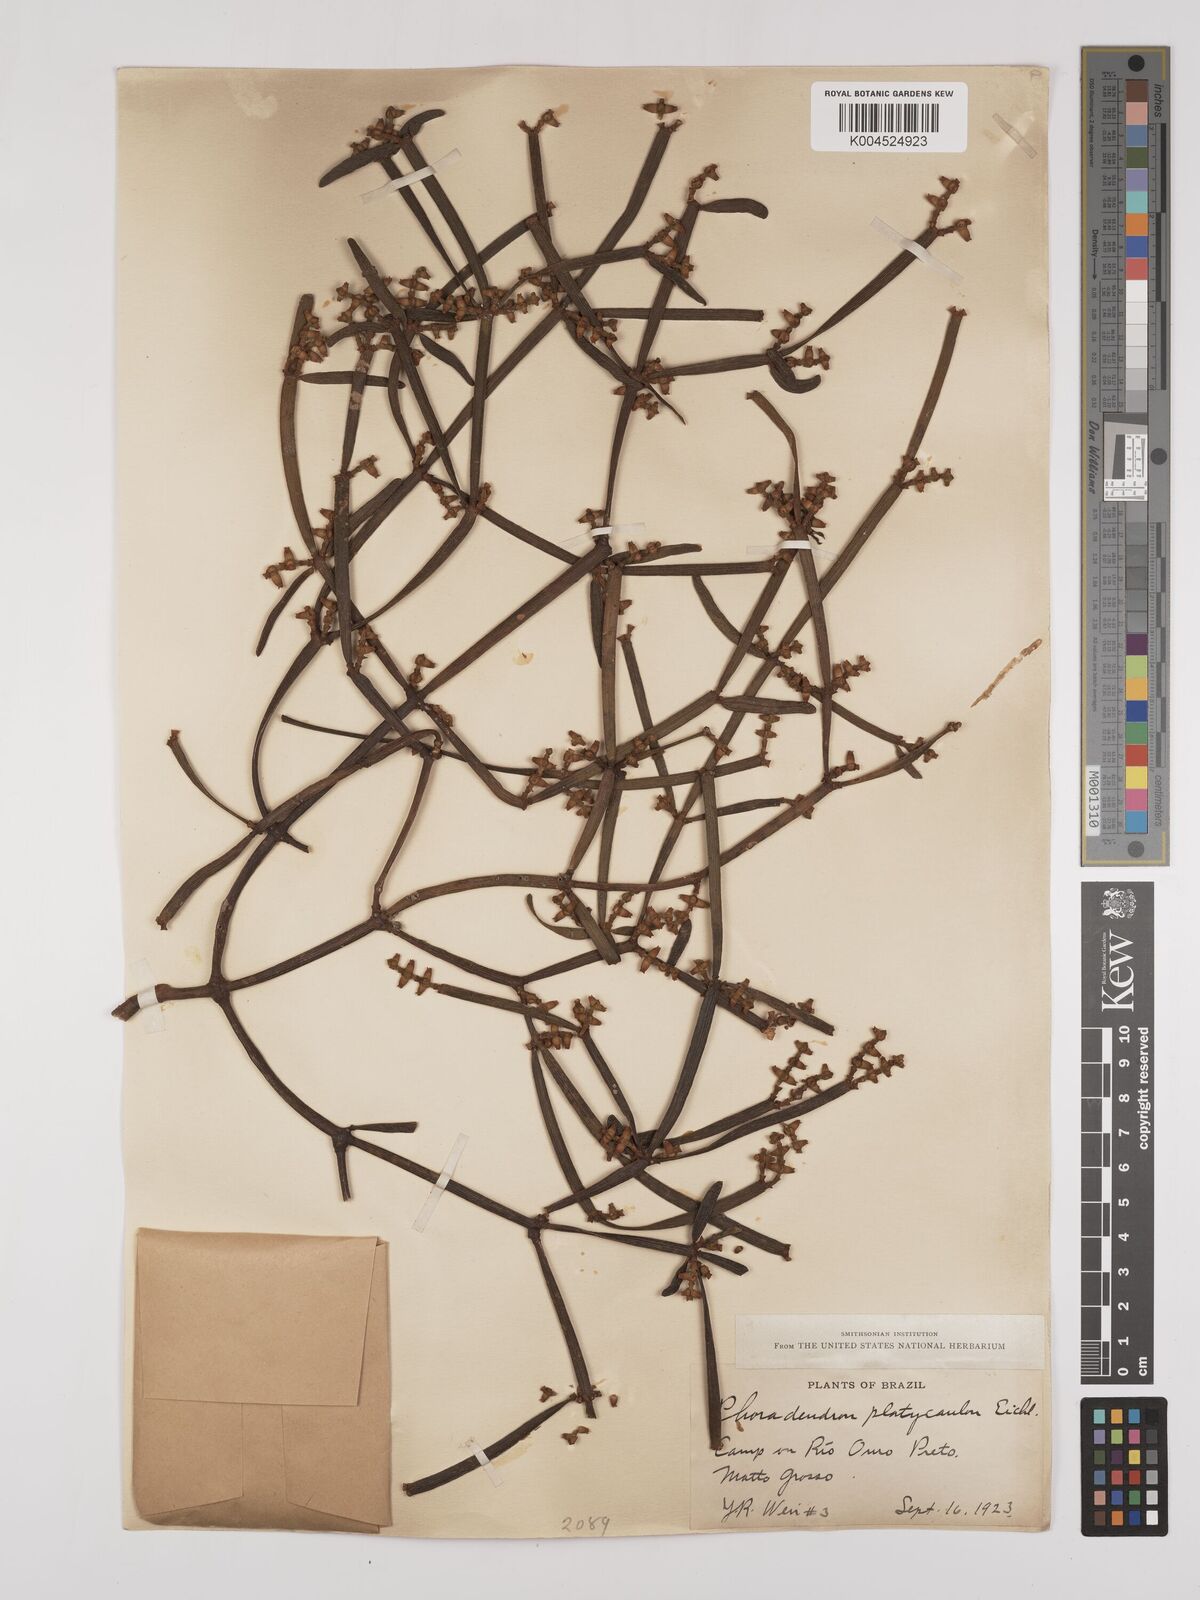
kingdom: Plantae
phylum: Tracheophyta
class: Magnoliopsida
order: Santalales
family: Viscaceae
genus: Phoradendron
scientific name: Phoradendron planiphyllum
